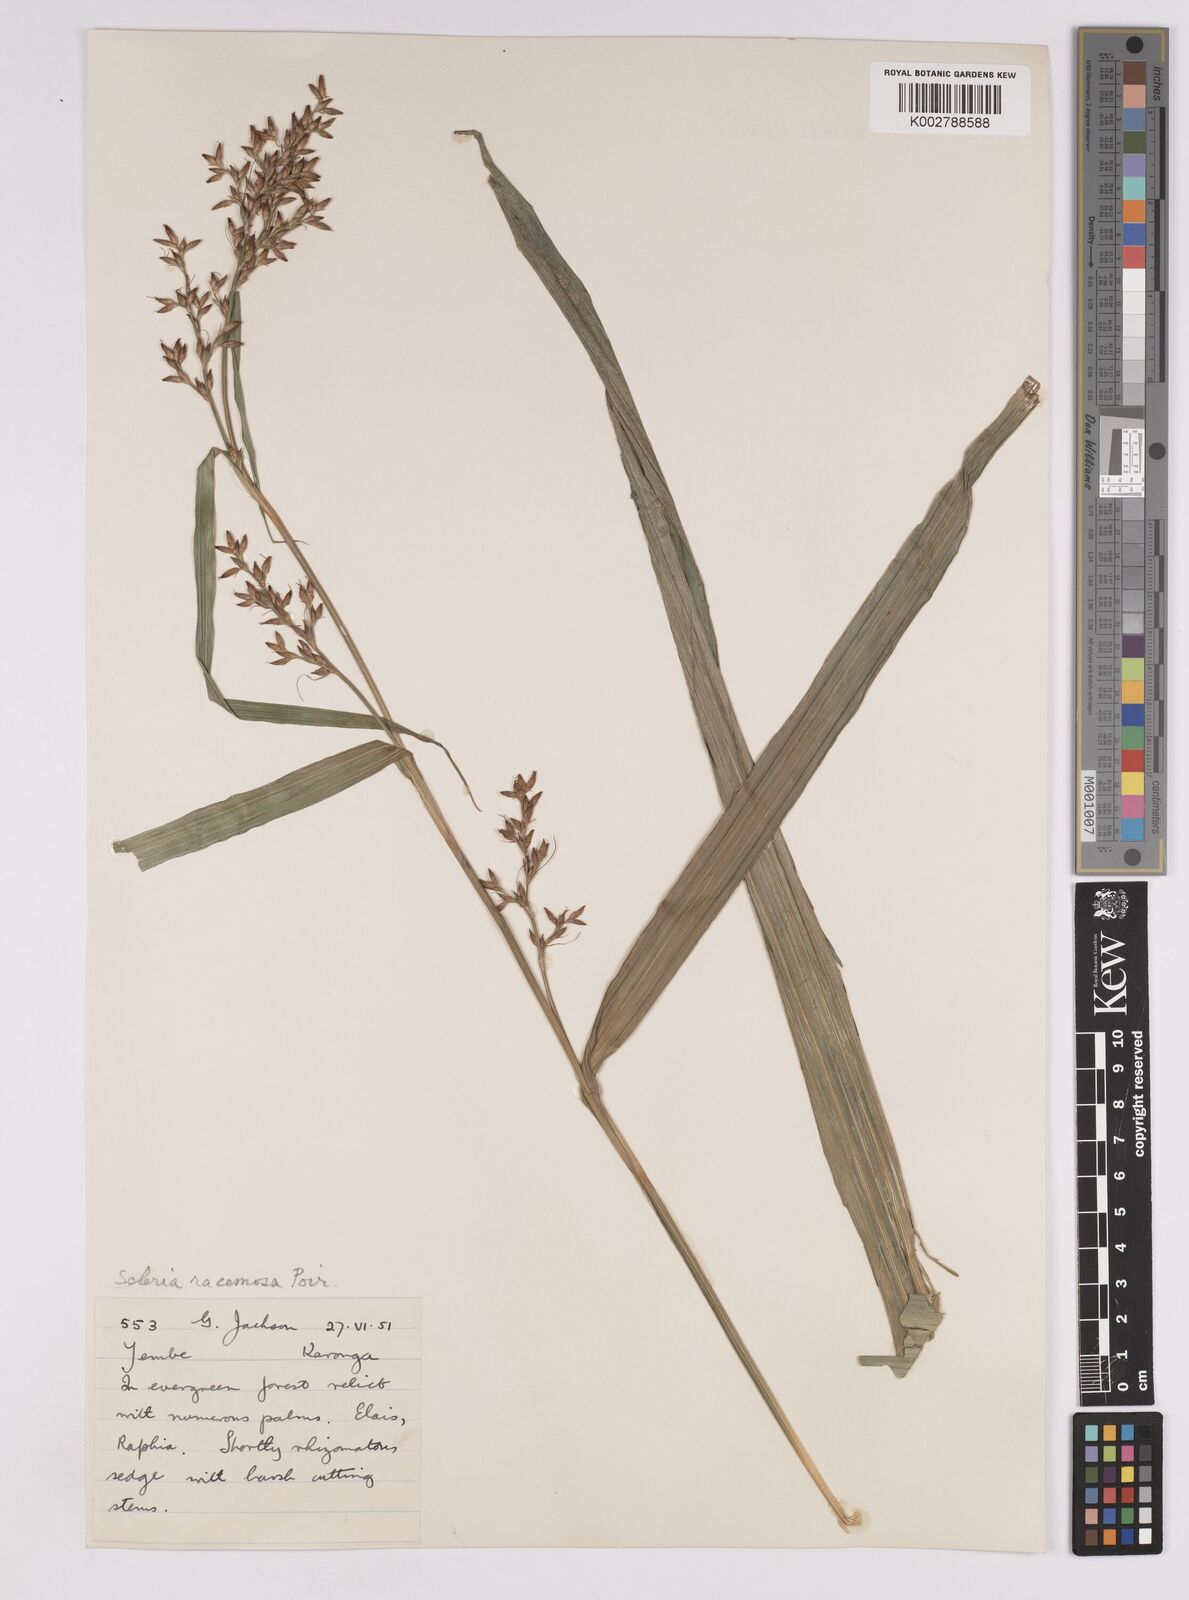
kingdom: Plantae
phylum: Tracheophyta
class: Liliopsida
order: Poales
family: Cyperaceae
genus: Scleria
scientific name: Scleria racemosa
